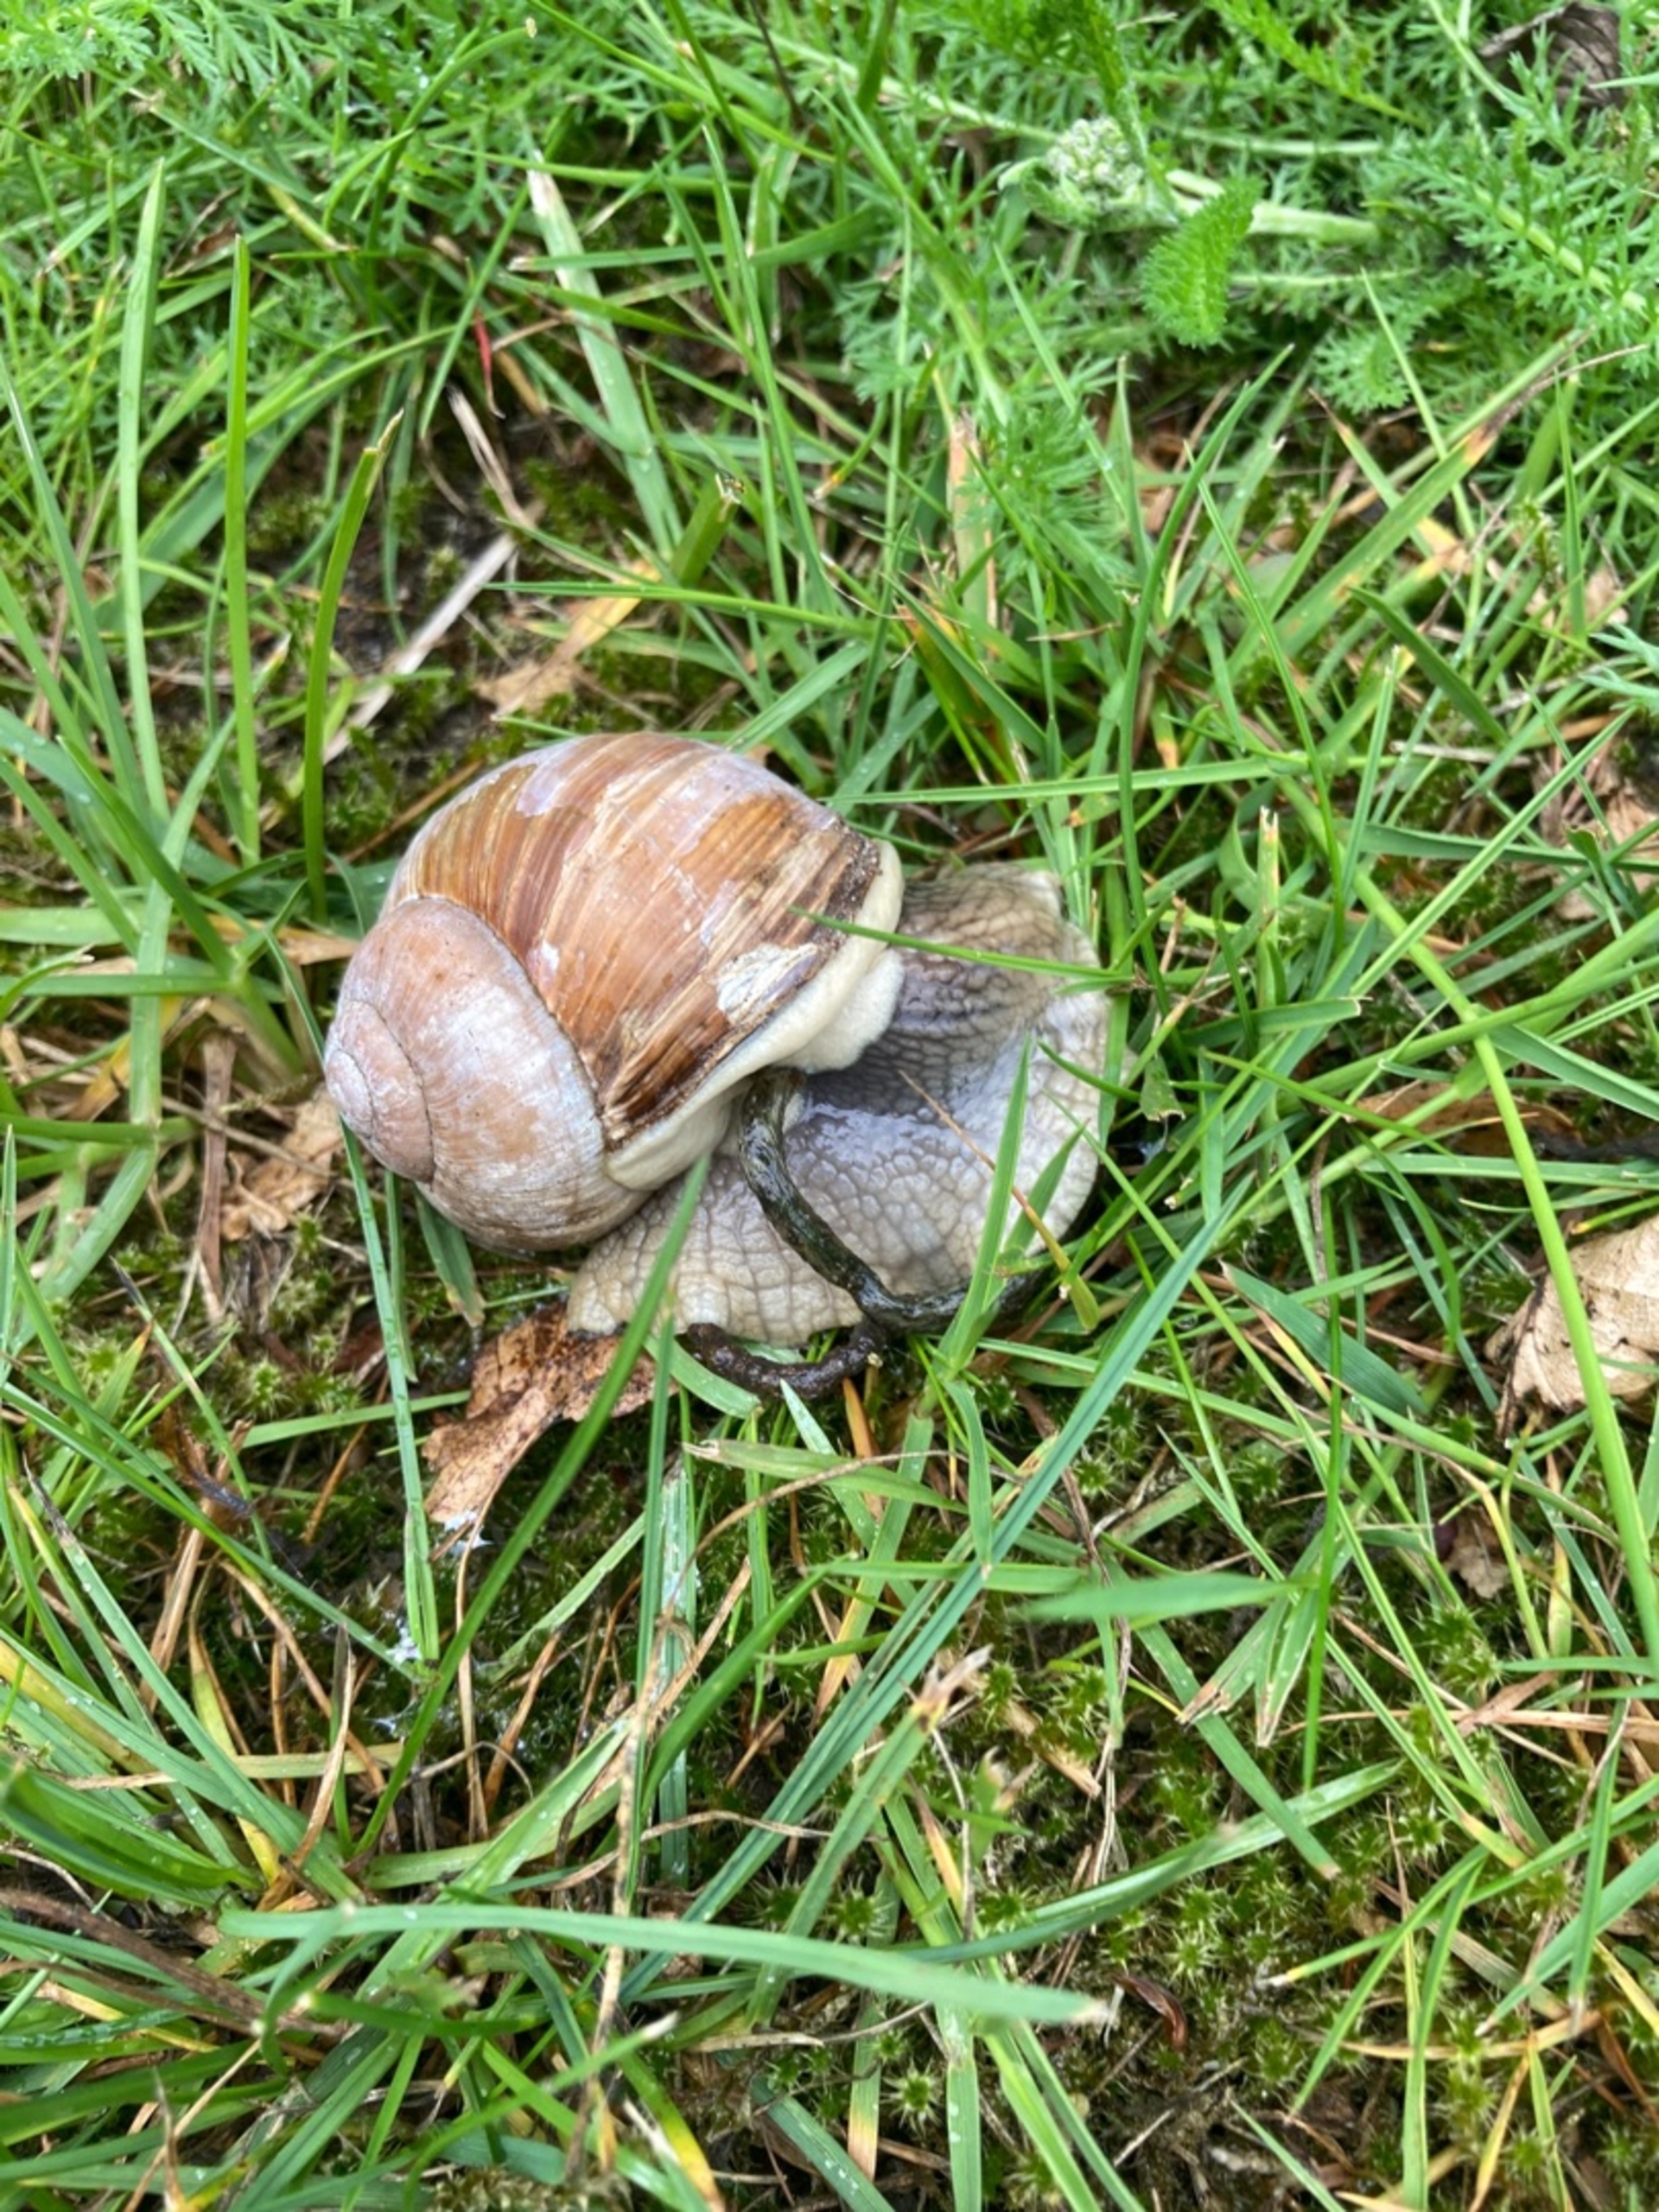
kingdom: Animalia
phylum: Mollusca
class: Gastropoda
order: Stylommatophora
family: Helicidae
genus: Helix
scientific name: Helix pomatia
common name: Vinbjergsnegl
